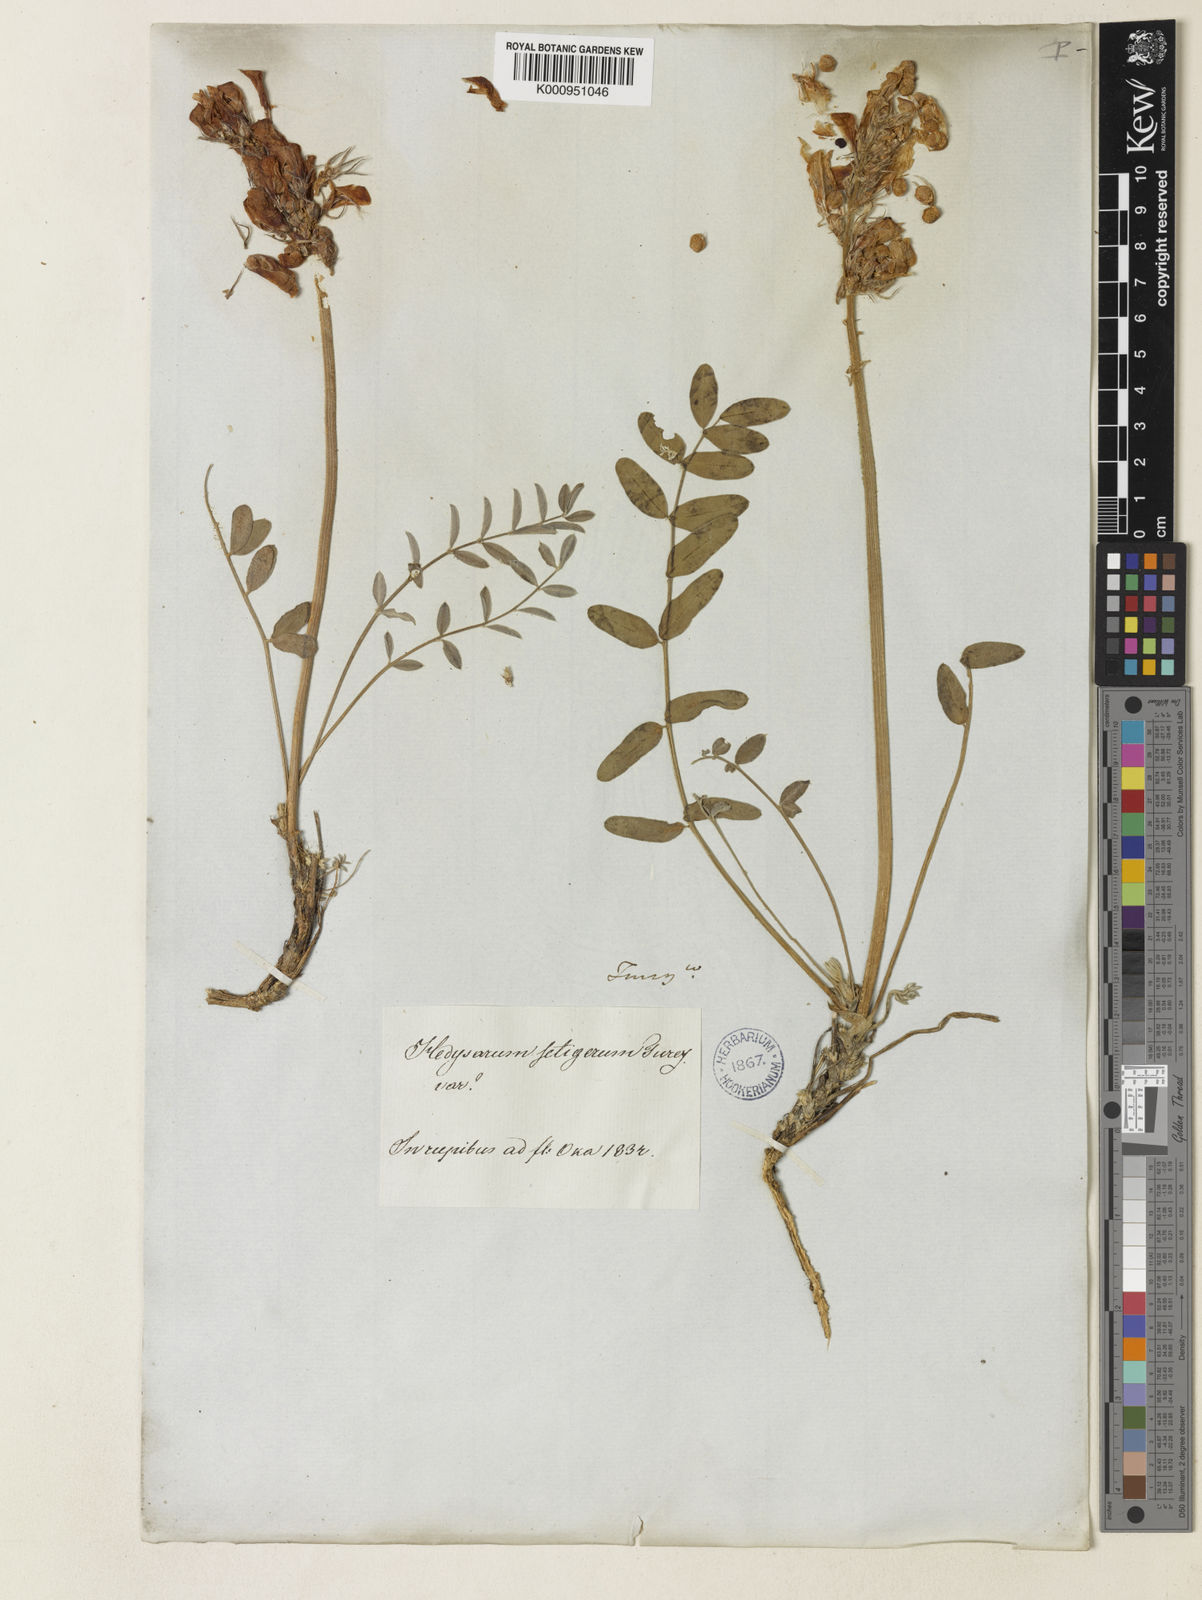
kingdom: Plantae
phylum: Tracheophyta
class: Magnoliopsida
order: Fabales
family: Fabaceae
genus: Hedysarum
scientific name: Hedysarum setigerum
